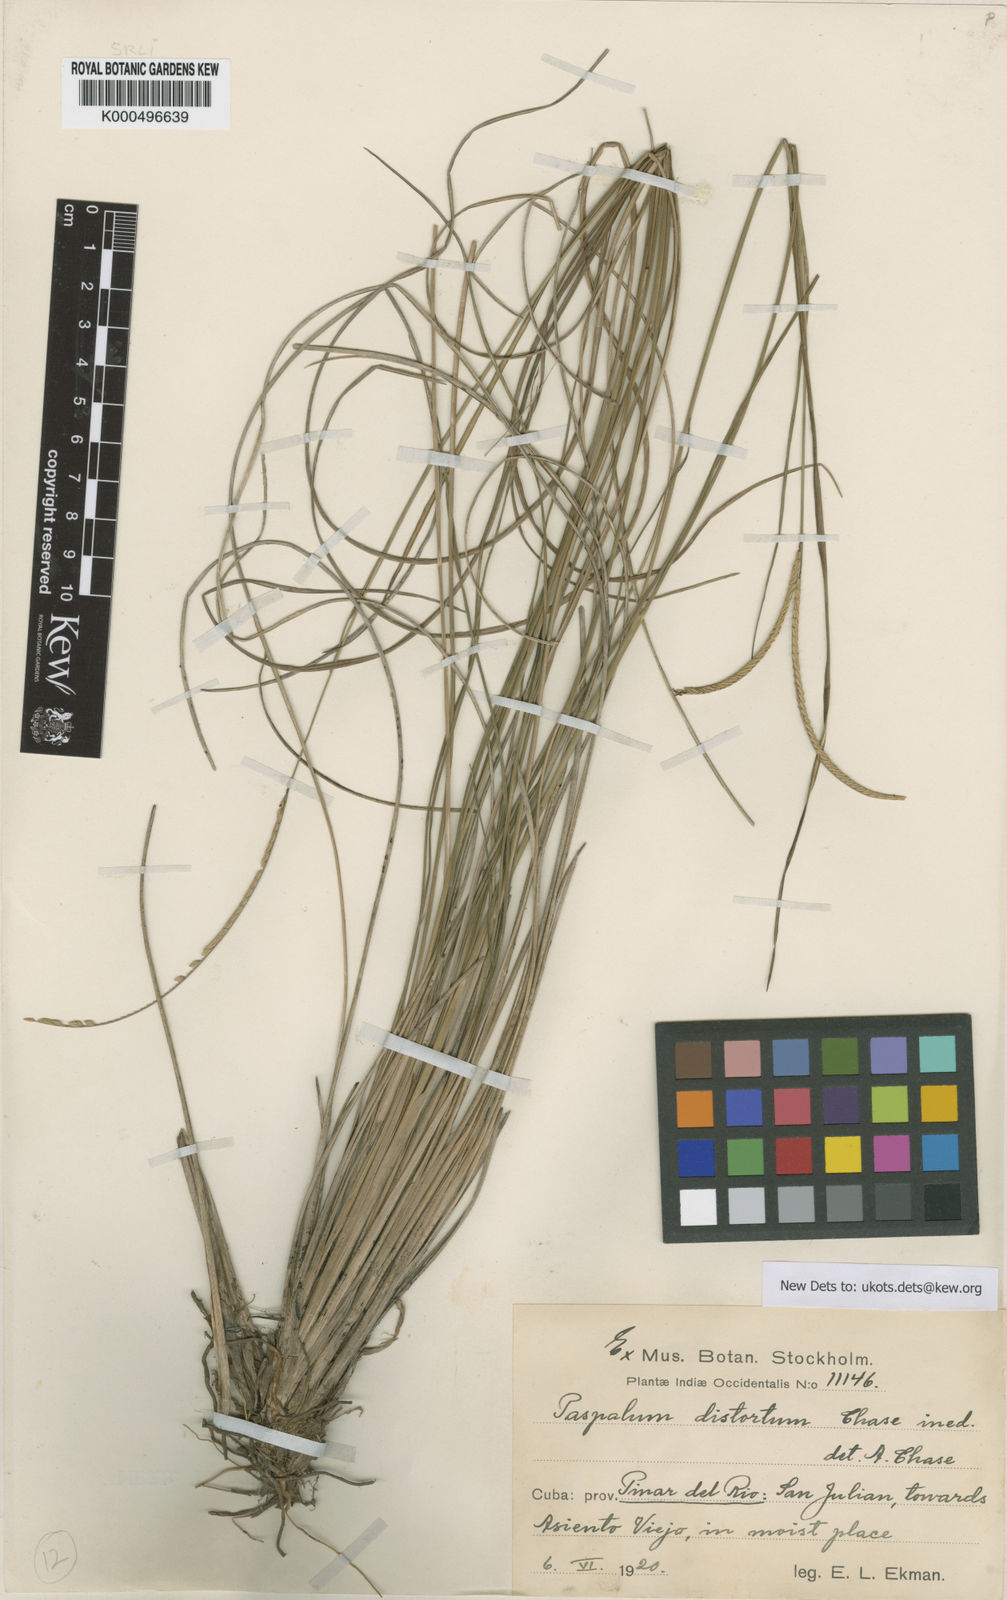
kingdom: Plantae
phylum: Tracheophyta
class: Liliopsida
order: Poales
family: Poaceae
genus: Paspalum
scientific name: Paspalum distortum
